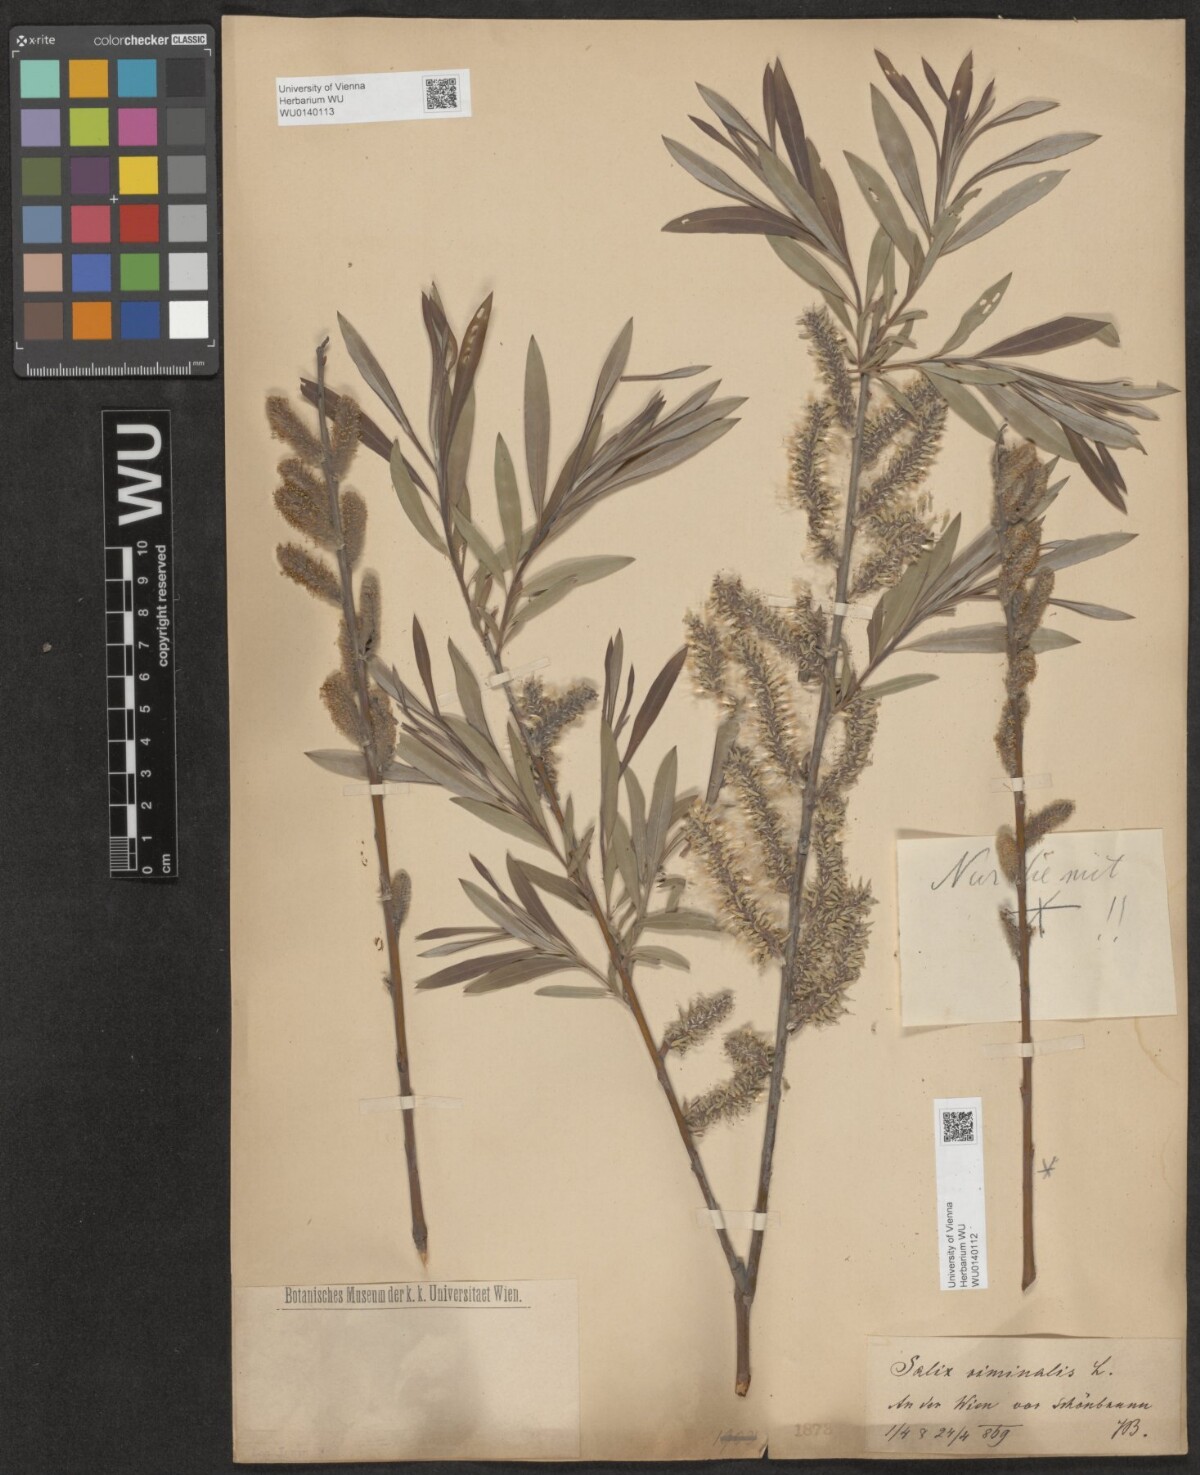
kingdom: Plantae
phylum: Tracheophyta
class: Magnoliopsida
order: Malpighiales
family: Salicaceae
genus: Salix
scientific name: Salix viminalis
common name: Osier
